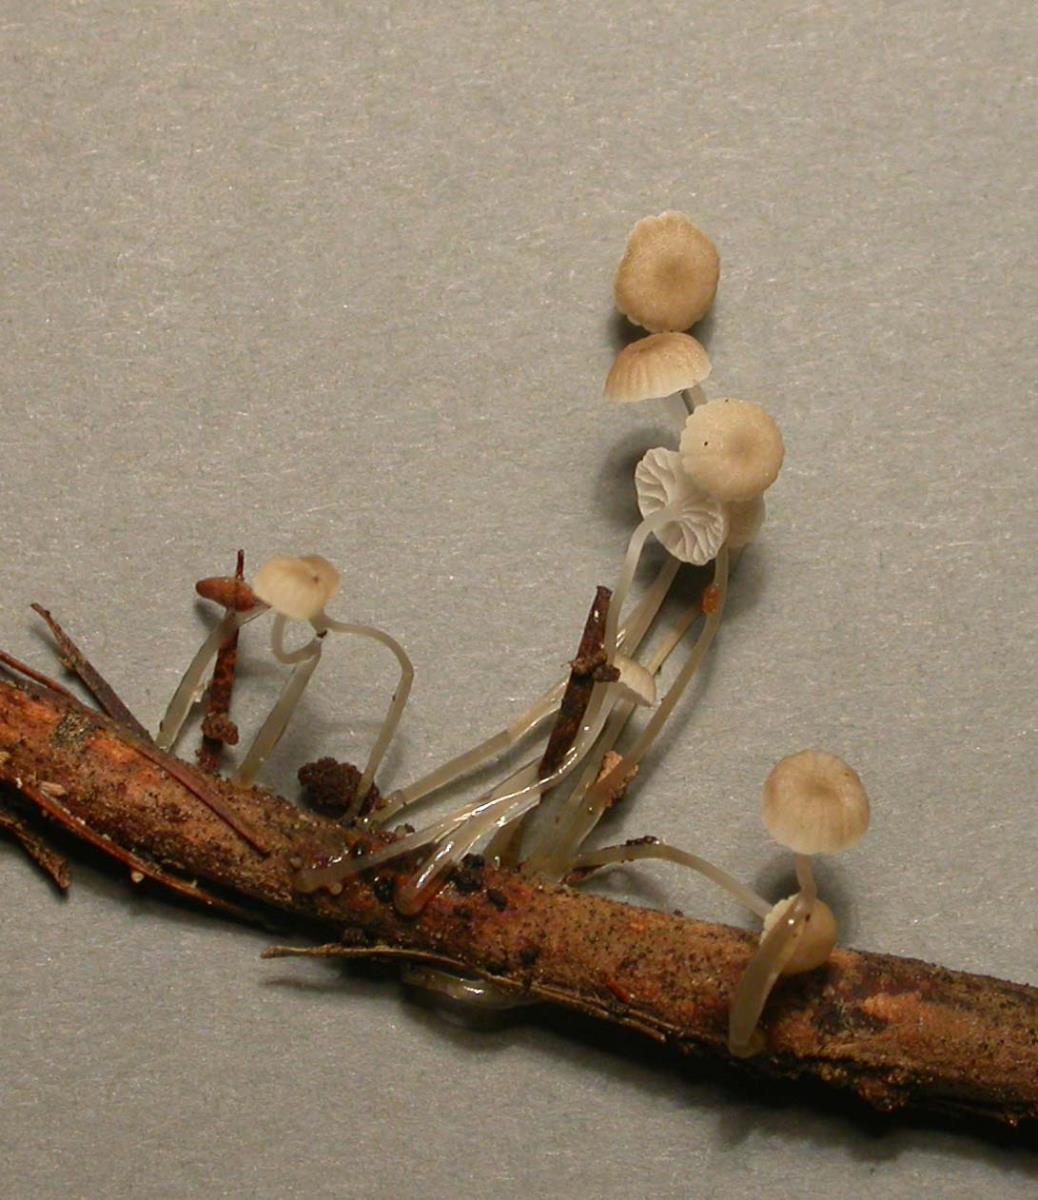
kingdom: Fungi
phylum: Basidiomycota
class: Agaricomycetes
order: Agaricales
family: Mycenaceae
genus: Roridomyces
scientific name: Roridomyces austrororidus
